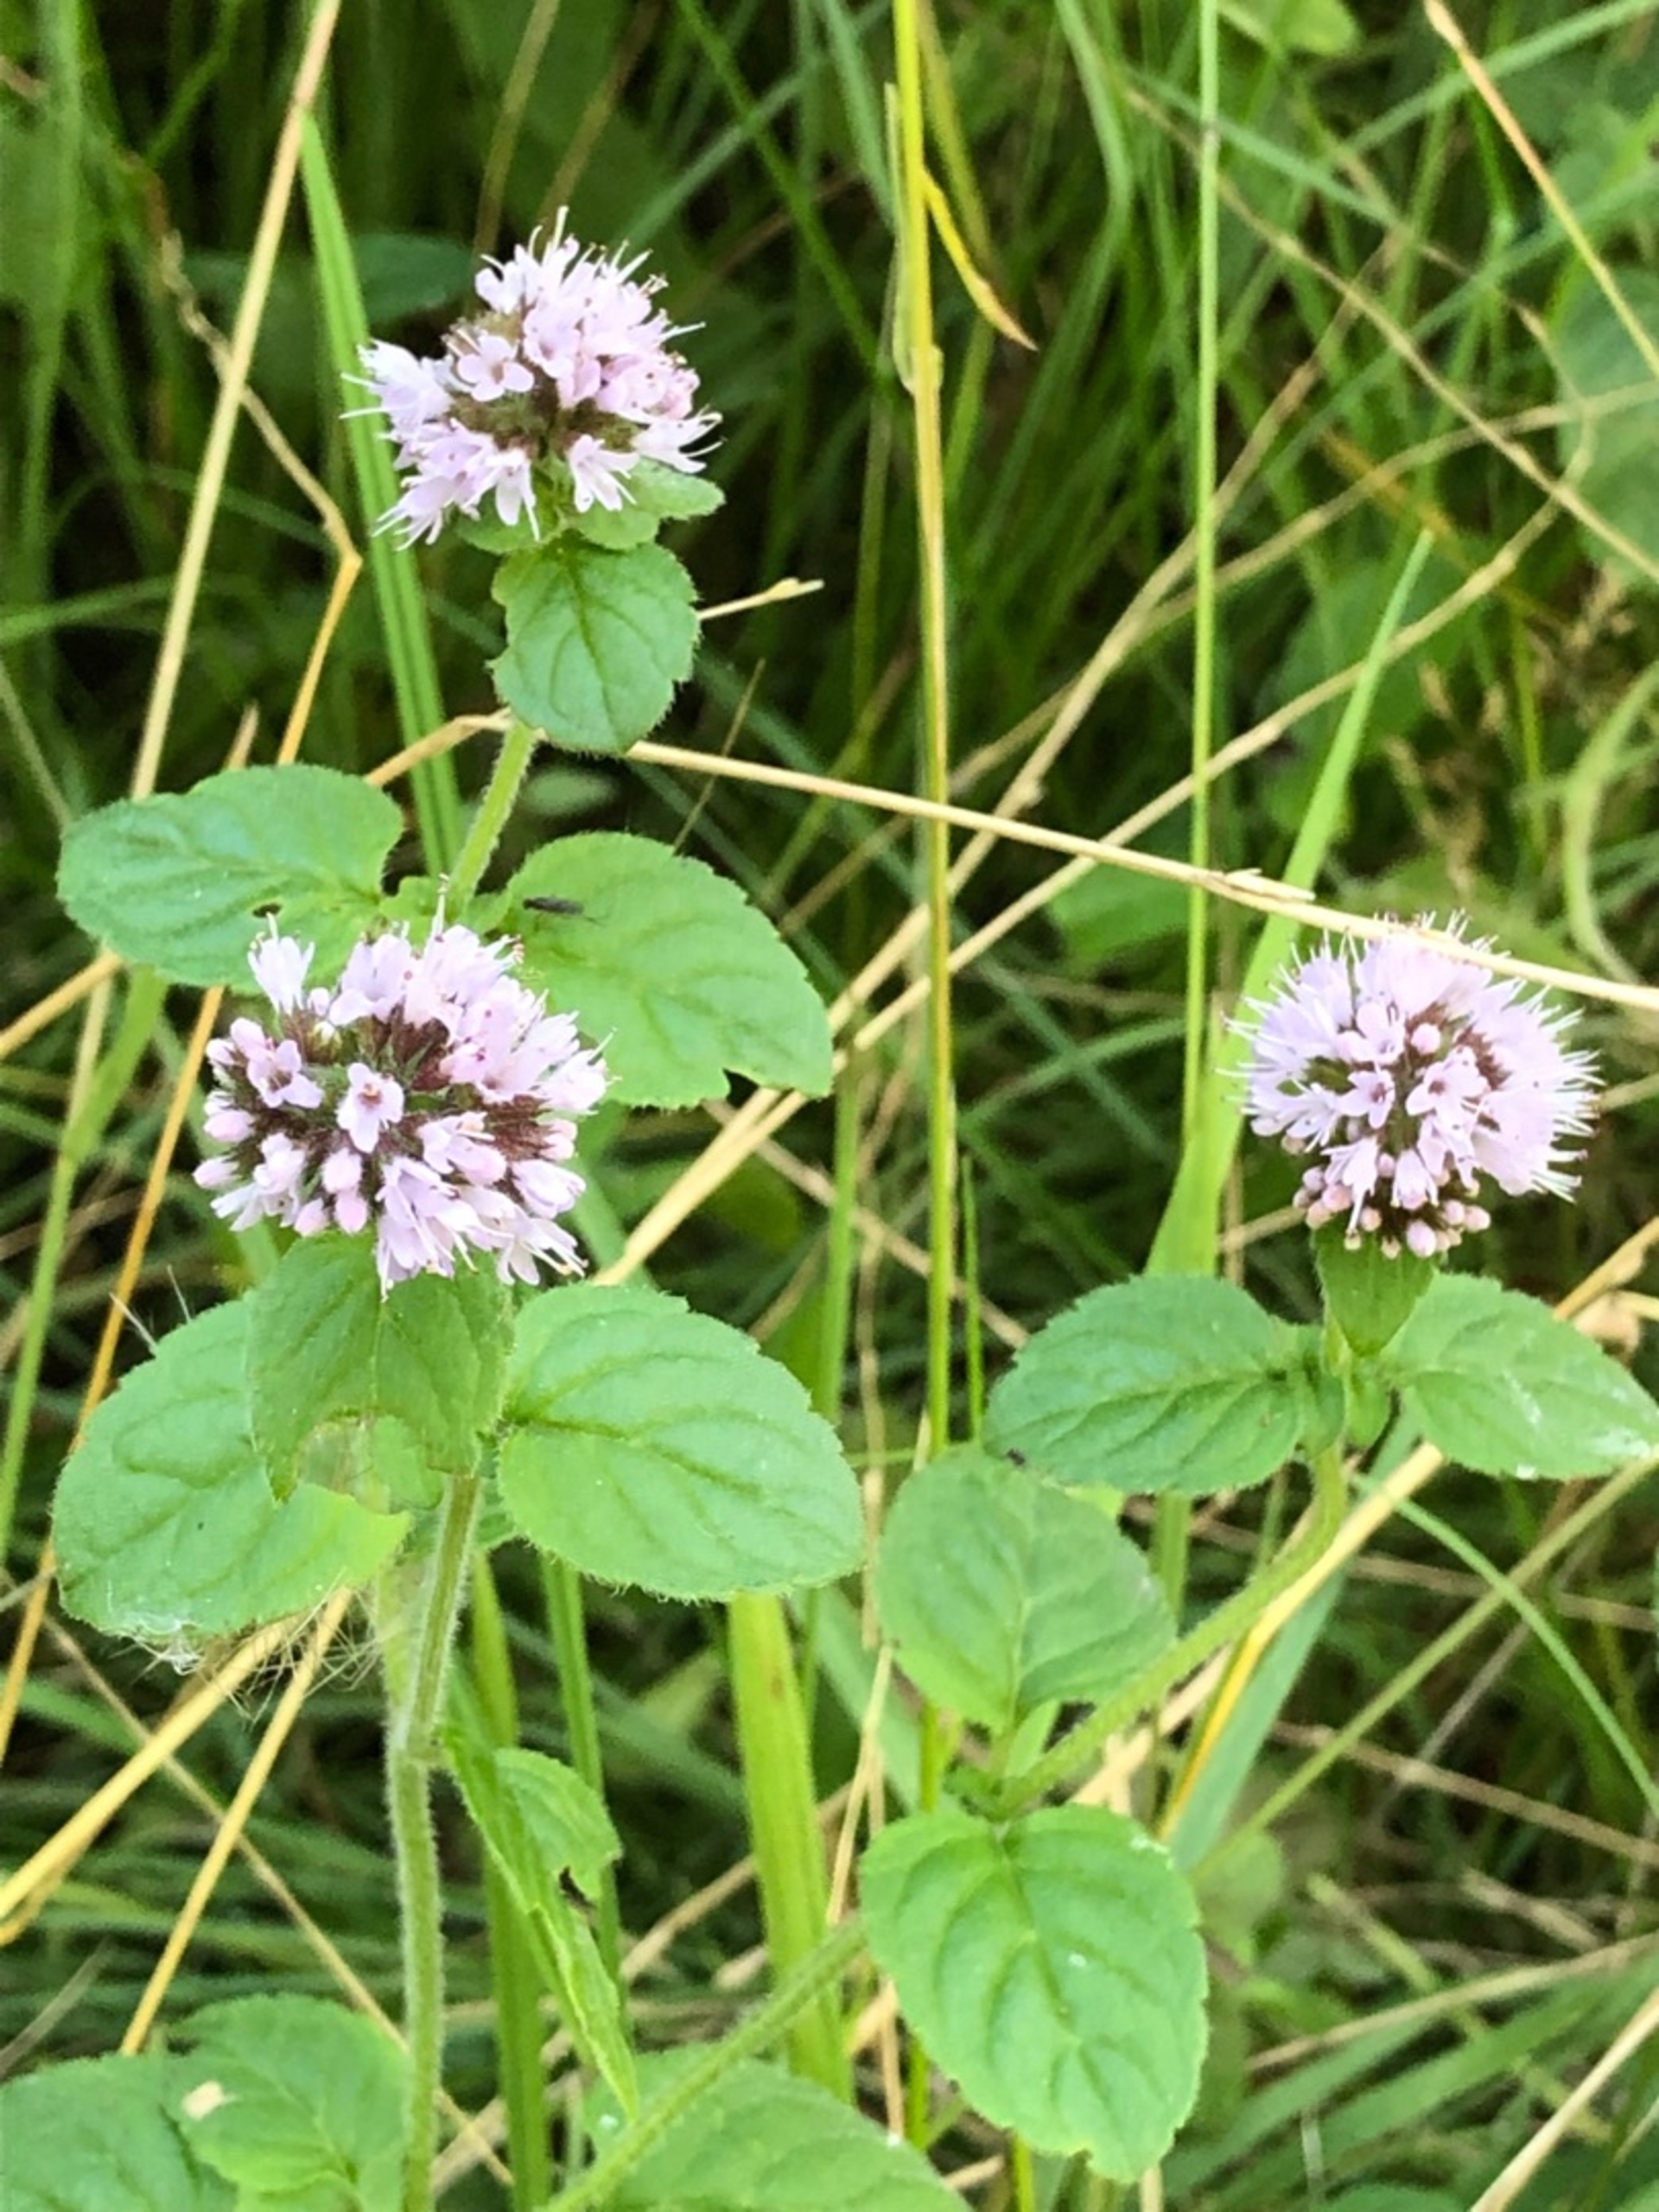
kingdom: Plantae
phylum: Tracheophyta
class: Magnoliopsida
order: Lamiales
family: Lamiaceae
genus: Mentha
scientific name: Mentha aquatica
